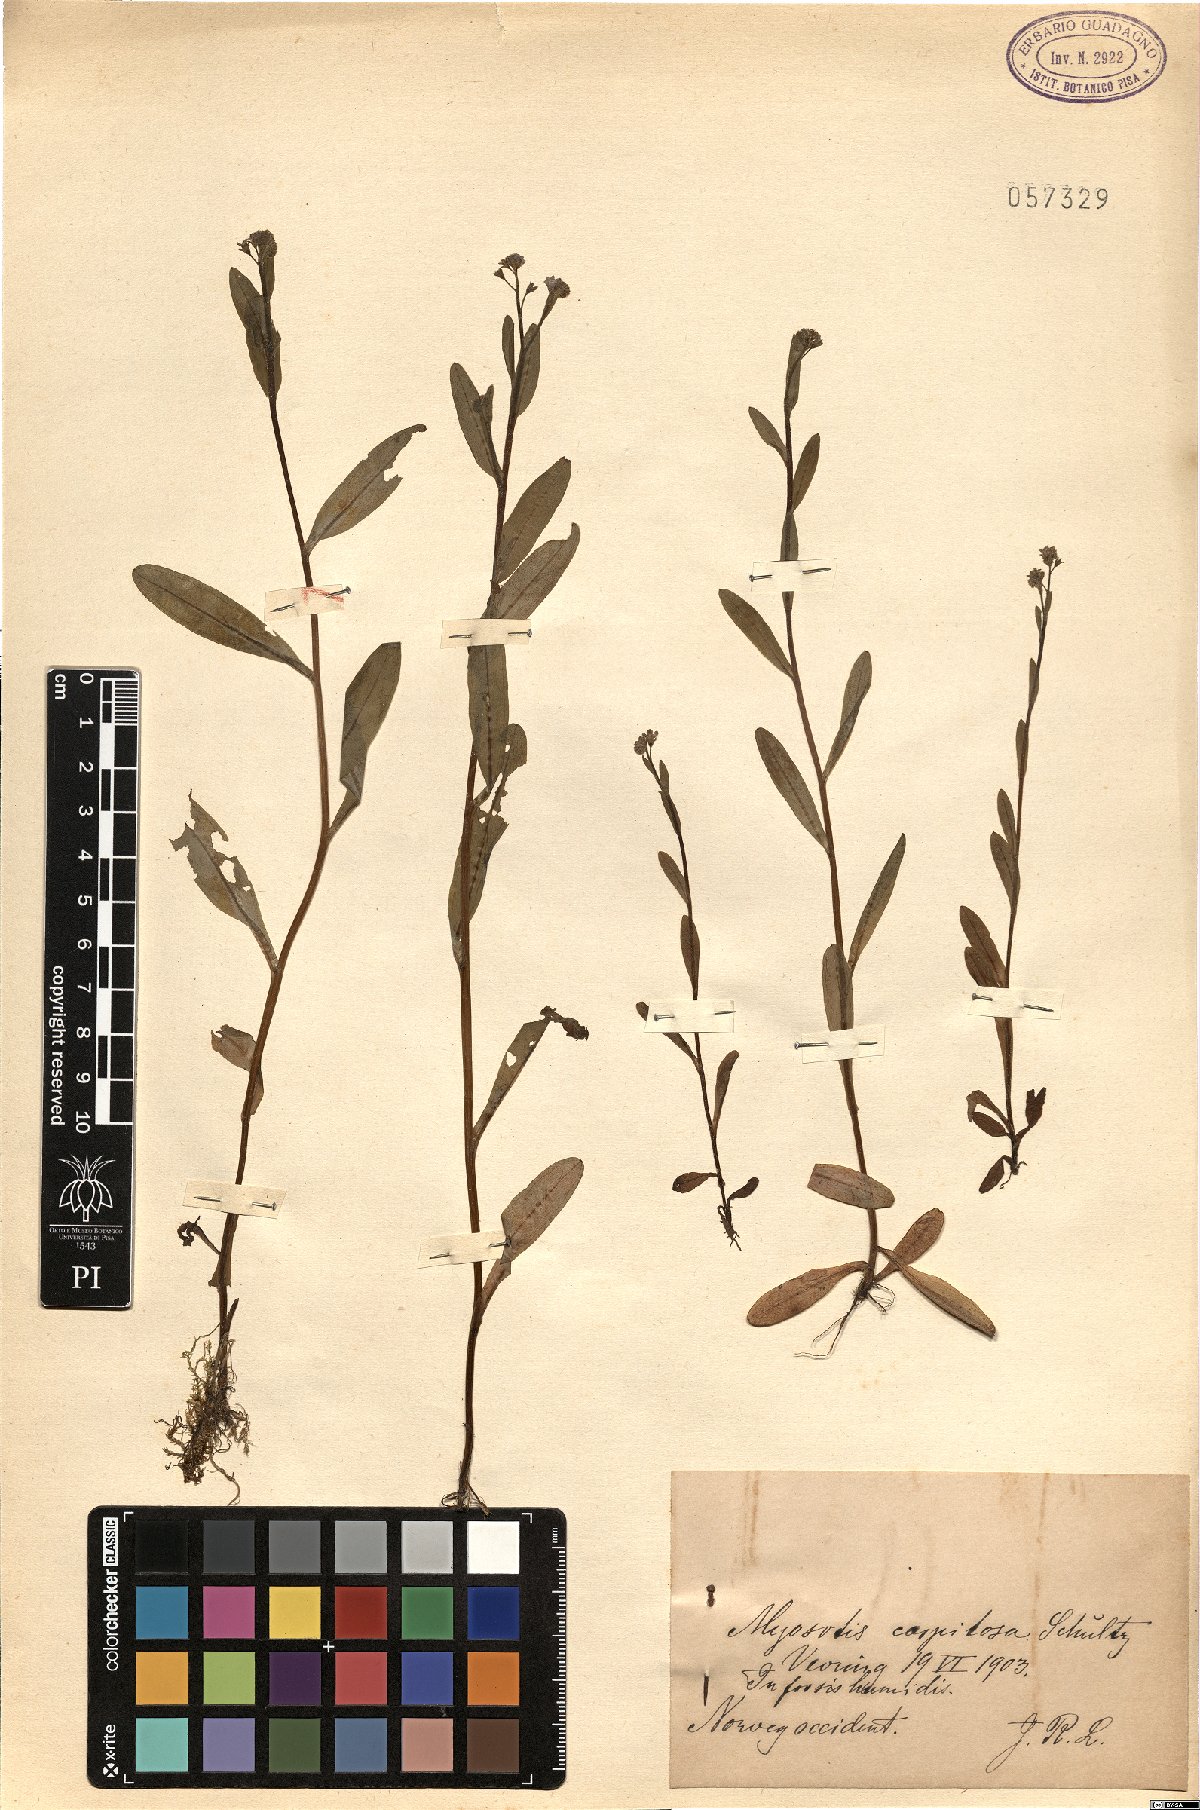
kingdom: Plantae
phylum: Tracheophyta
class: Magnoliopsida
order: Boraginales
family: Boraginaceae
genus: Myosotis
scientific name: Myosotis laxa
